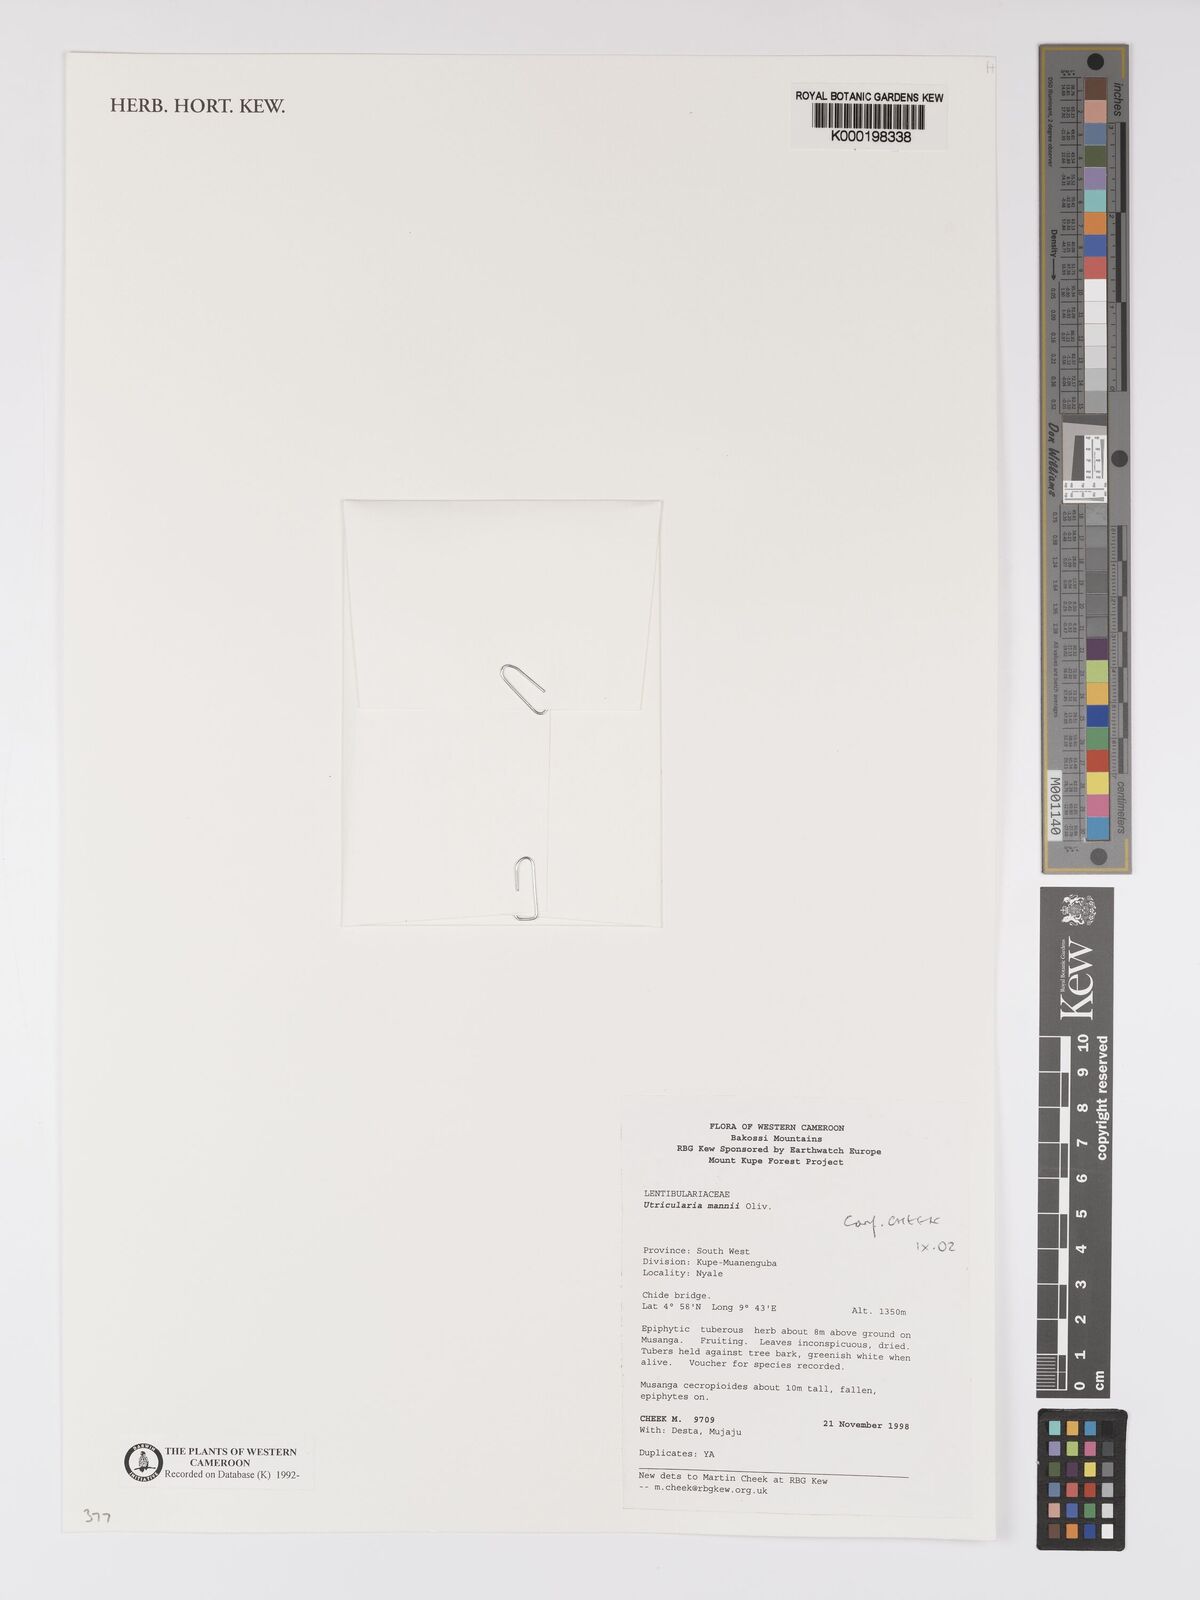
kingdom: Plantae
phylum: Tracheophyta
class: Magnoliopsida
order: Lamiales
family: Lentibulariaceae
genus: Utricularia
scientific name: Utricularia mannii
